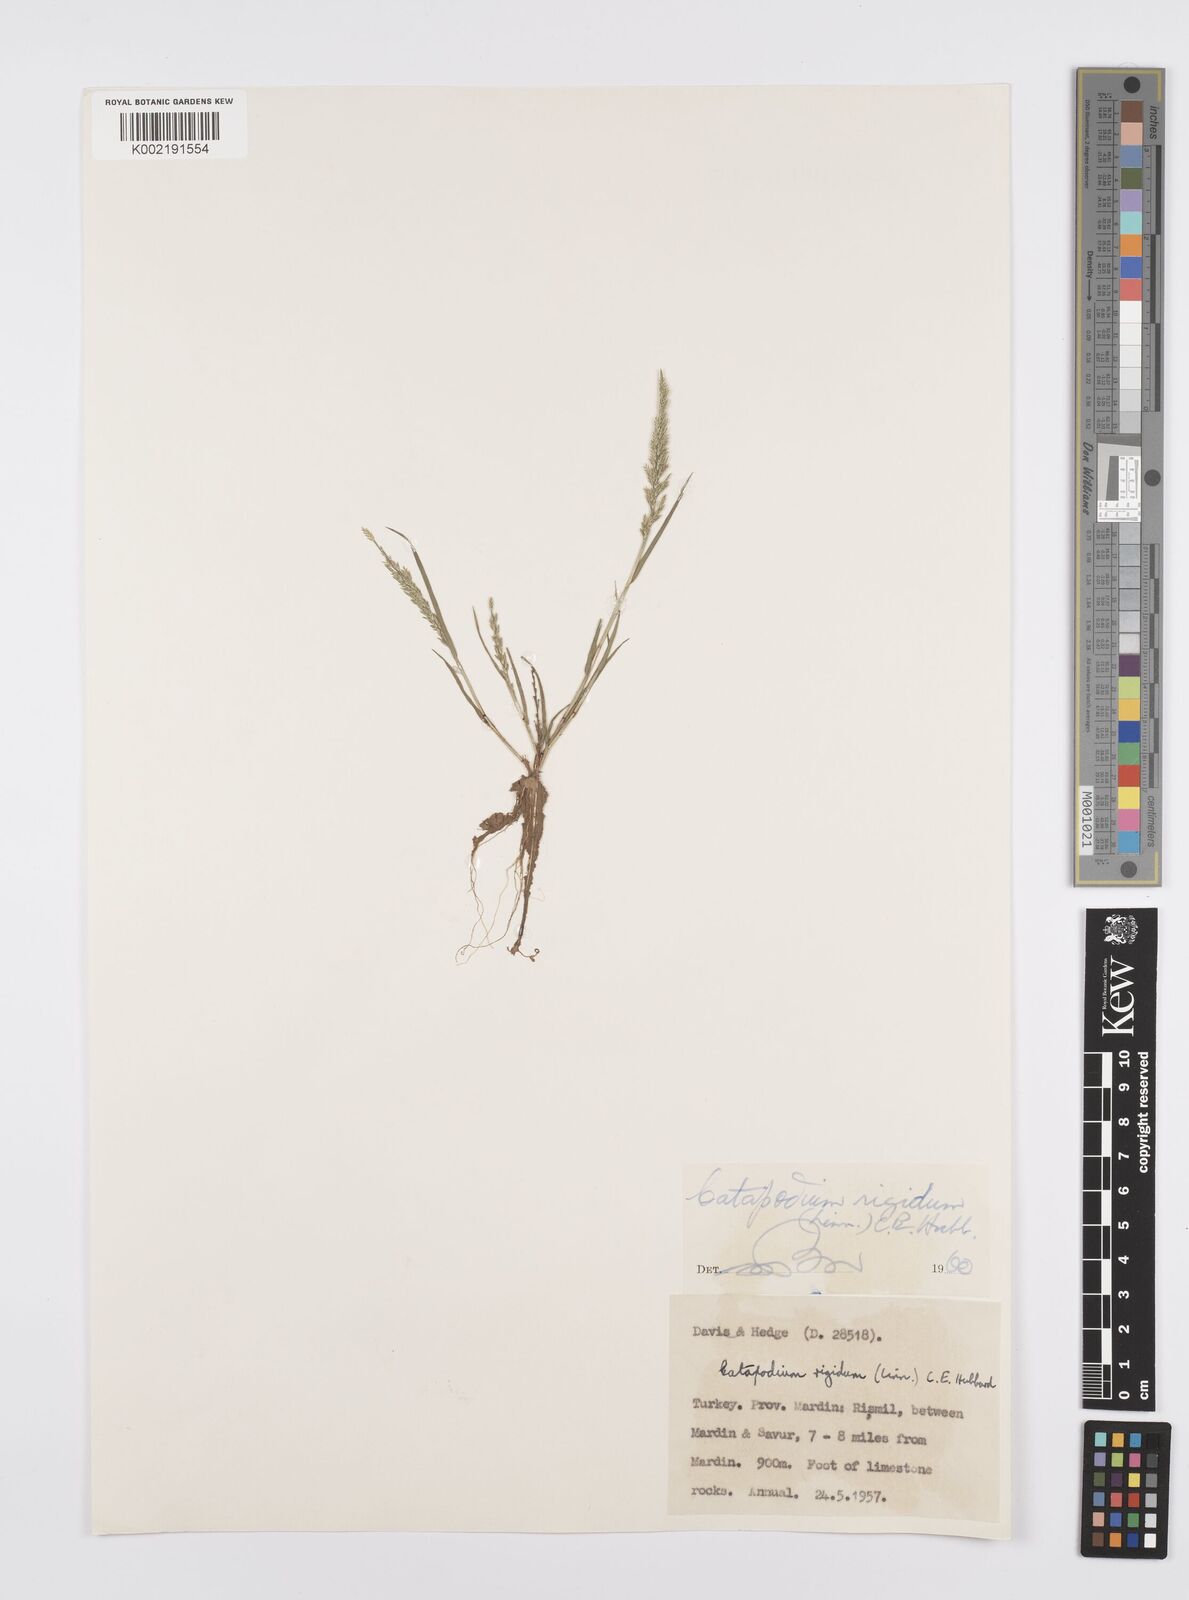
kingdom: Plantae
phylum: Tracheophyta
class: Liliopsida
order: Poales
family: Poaceae
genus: Catapodium
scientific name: Catapodium rigidum
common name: Fern-grass
